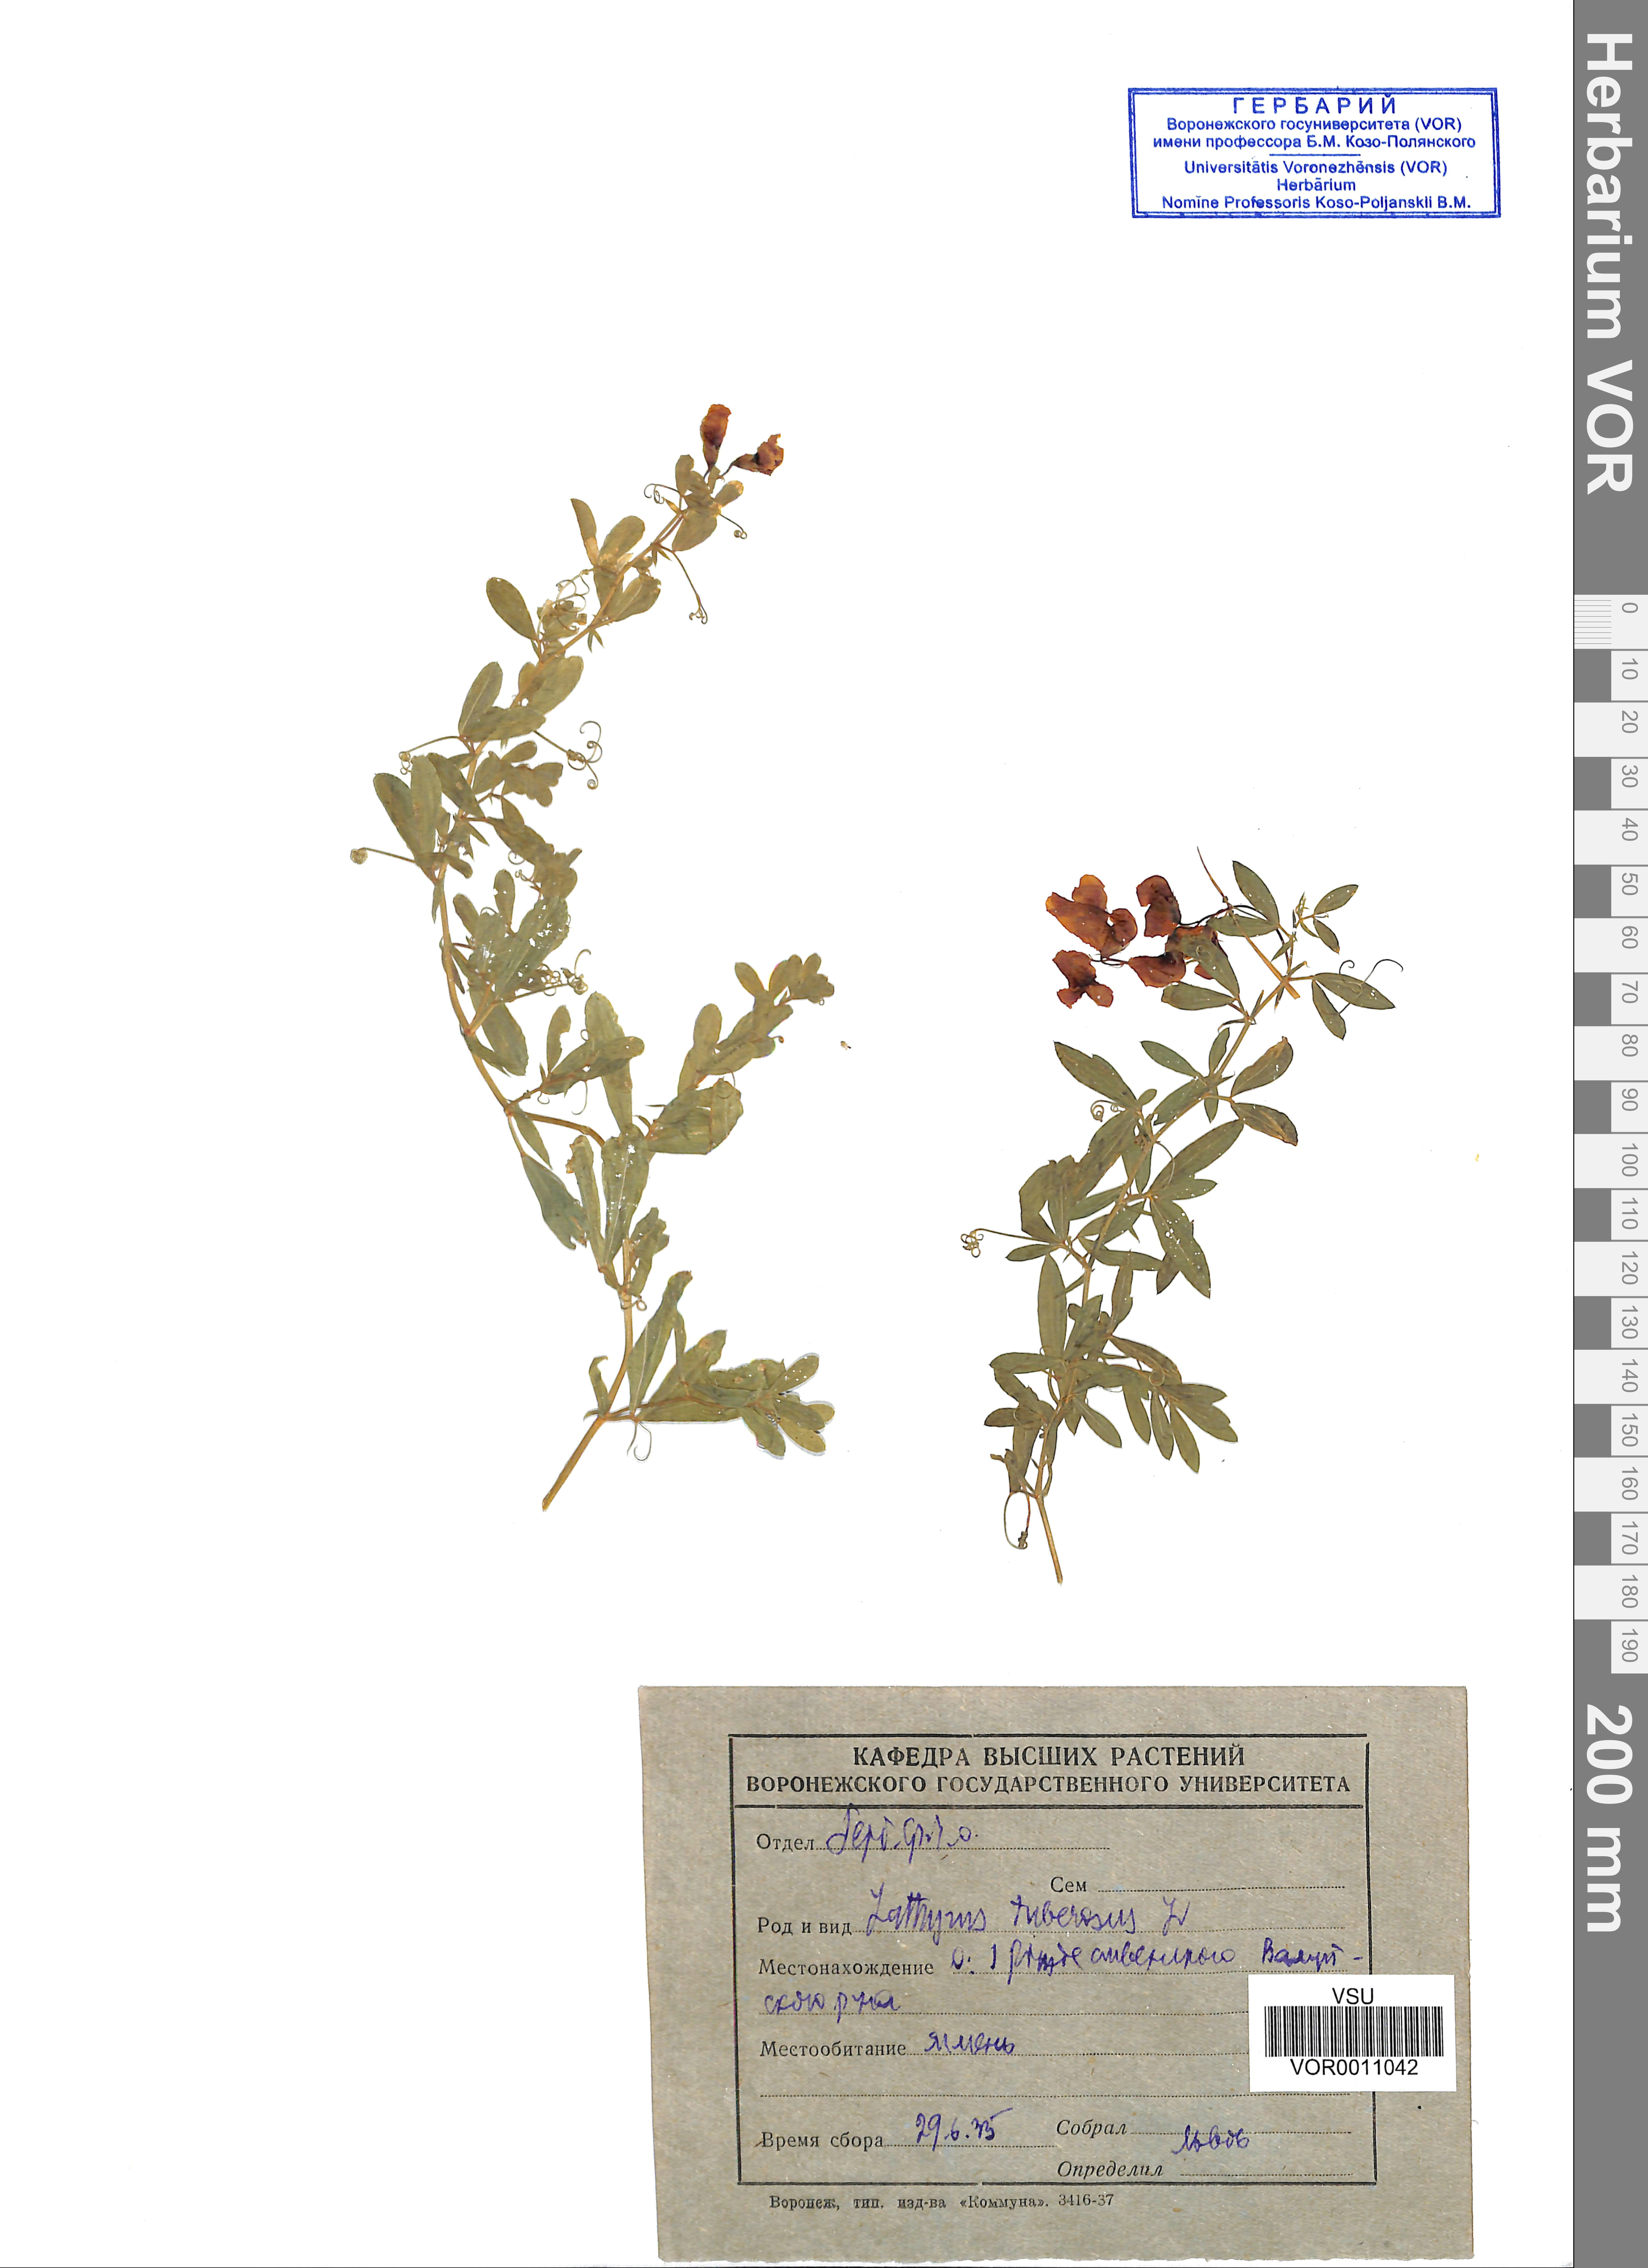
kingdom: Plantae
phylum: Tracheophyta
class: Magnoliopsida
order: Fabales
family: Fabaceae
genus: Lathyrus
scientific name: Lathyrus tuberosus
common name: Tuberous pea
